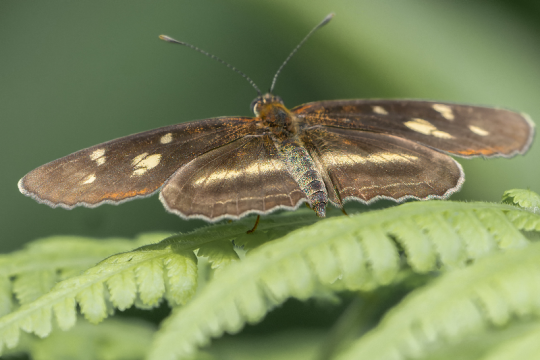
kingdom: Animalia
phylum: Arthropoda
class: Insecta
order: Lepidoptera
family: Nymphalidae
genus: Eresia
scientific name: Eresia clio
